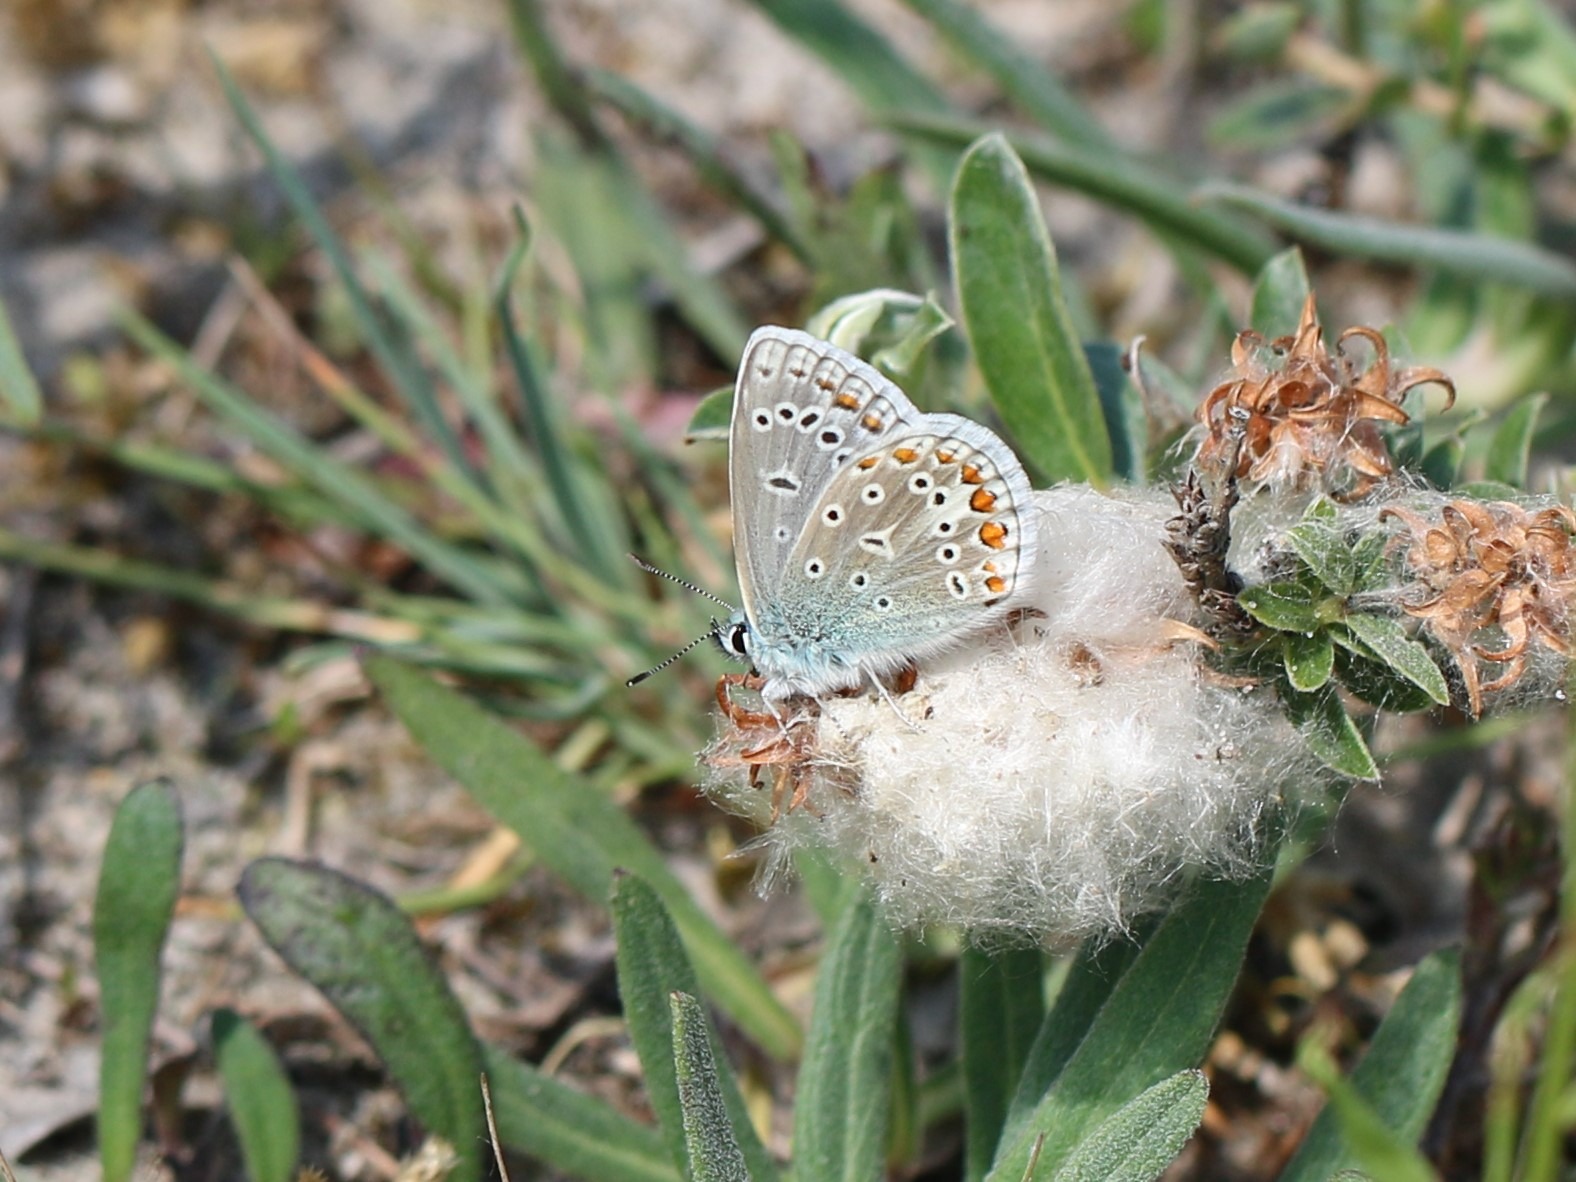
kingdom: Animalia
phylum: Arthropoda
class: Insecta
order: Lepidoptera
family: Lycaenidae
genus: Polyommatus
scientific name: Polyommatus icarus
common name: Almindelig blåfugl
